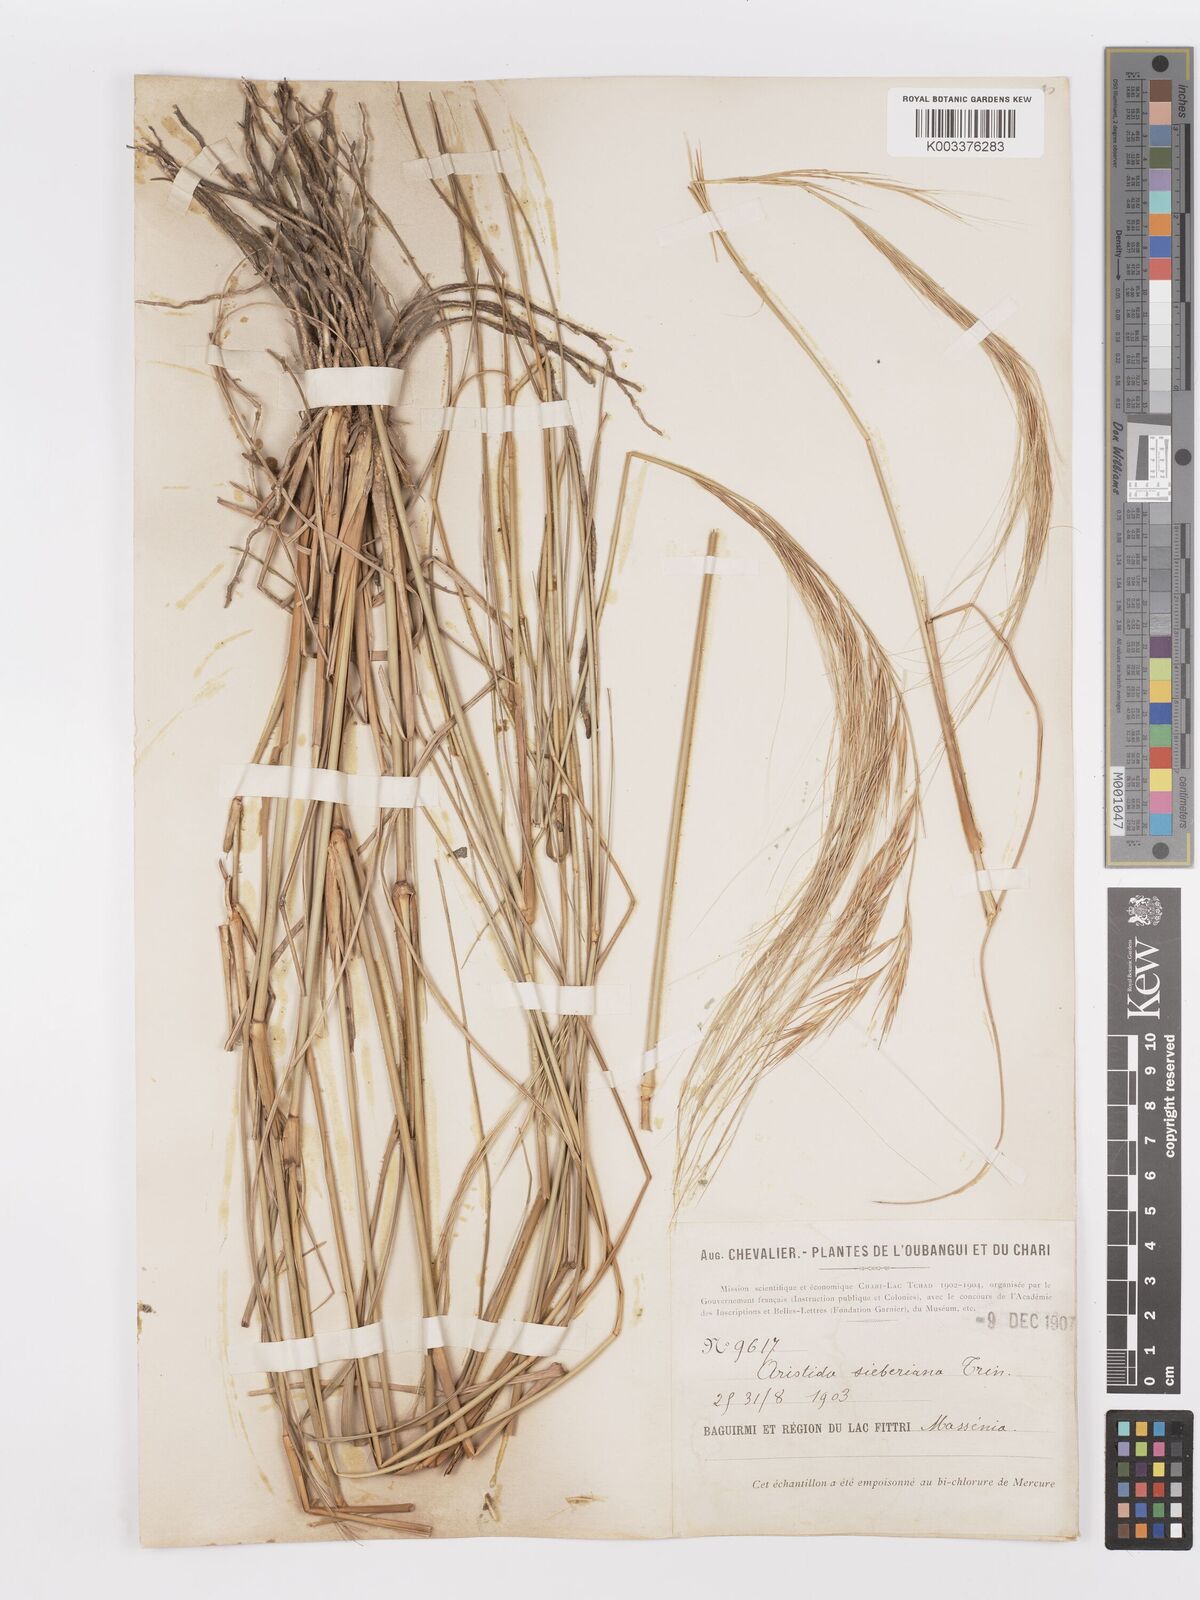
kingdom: Plantae
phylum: Tracheophyta
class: Liliopsida
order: Poales
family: Poaceae
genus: Aristida
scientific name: Aristida sieberiana
